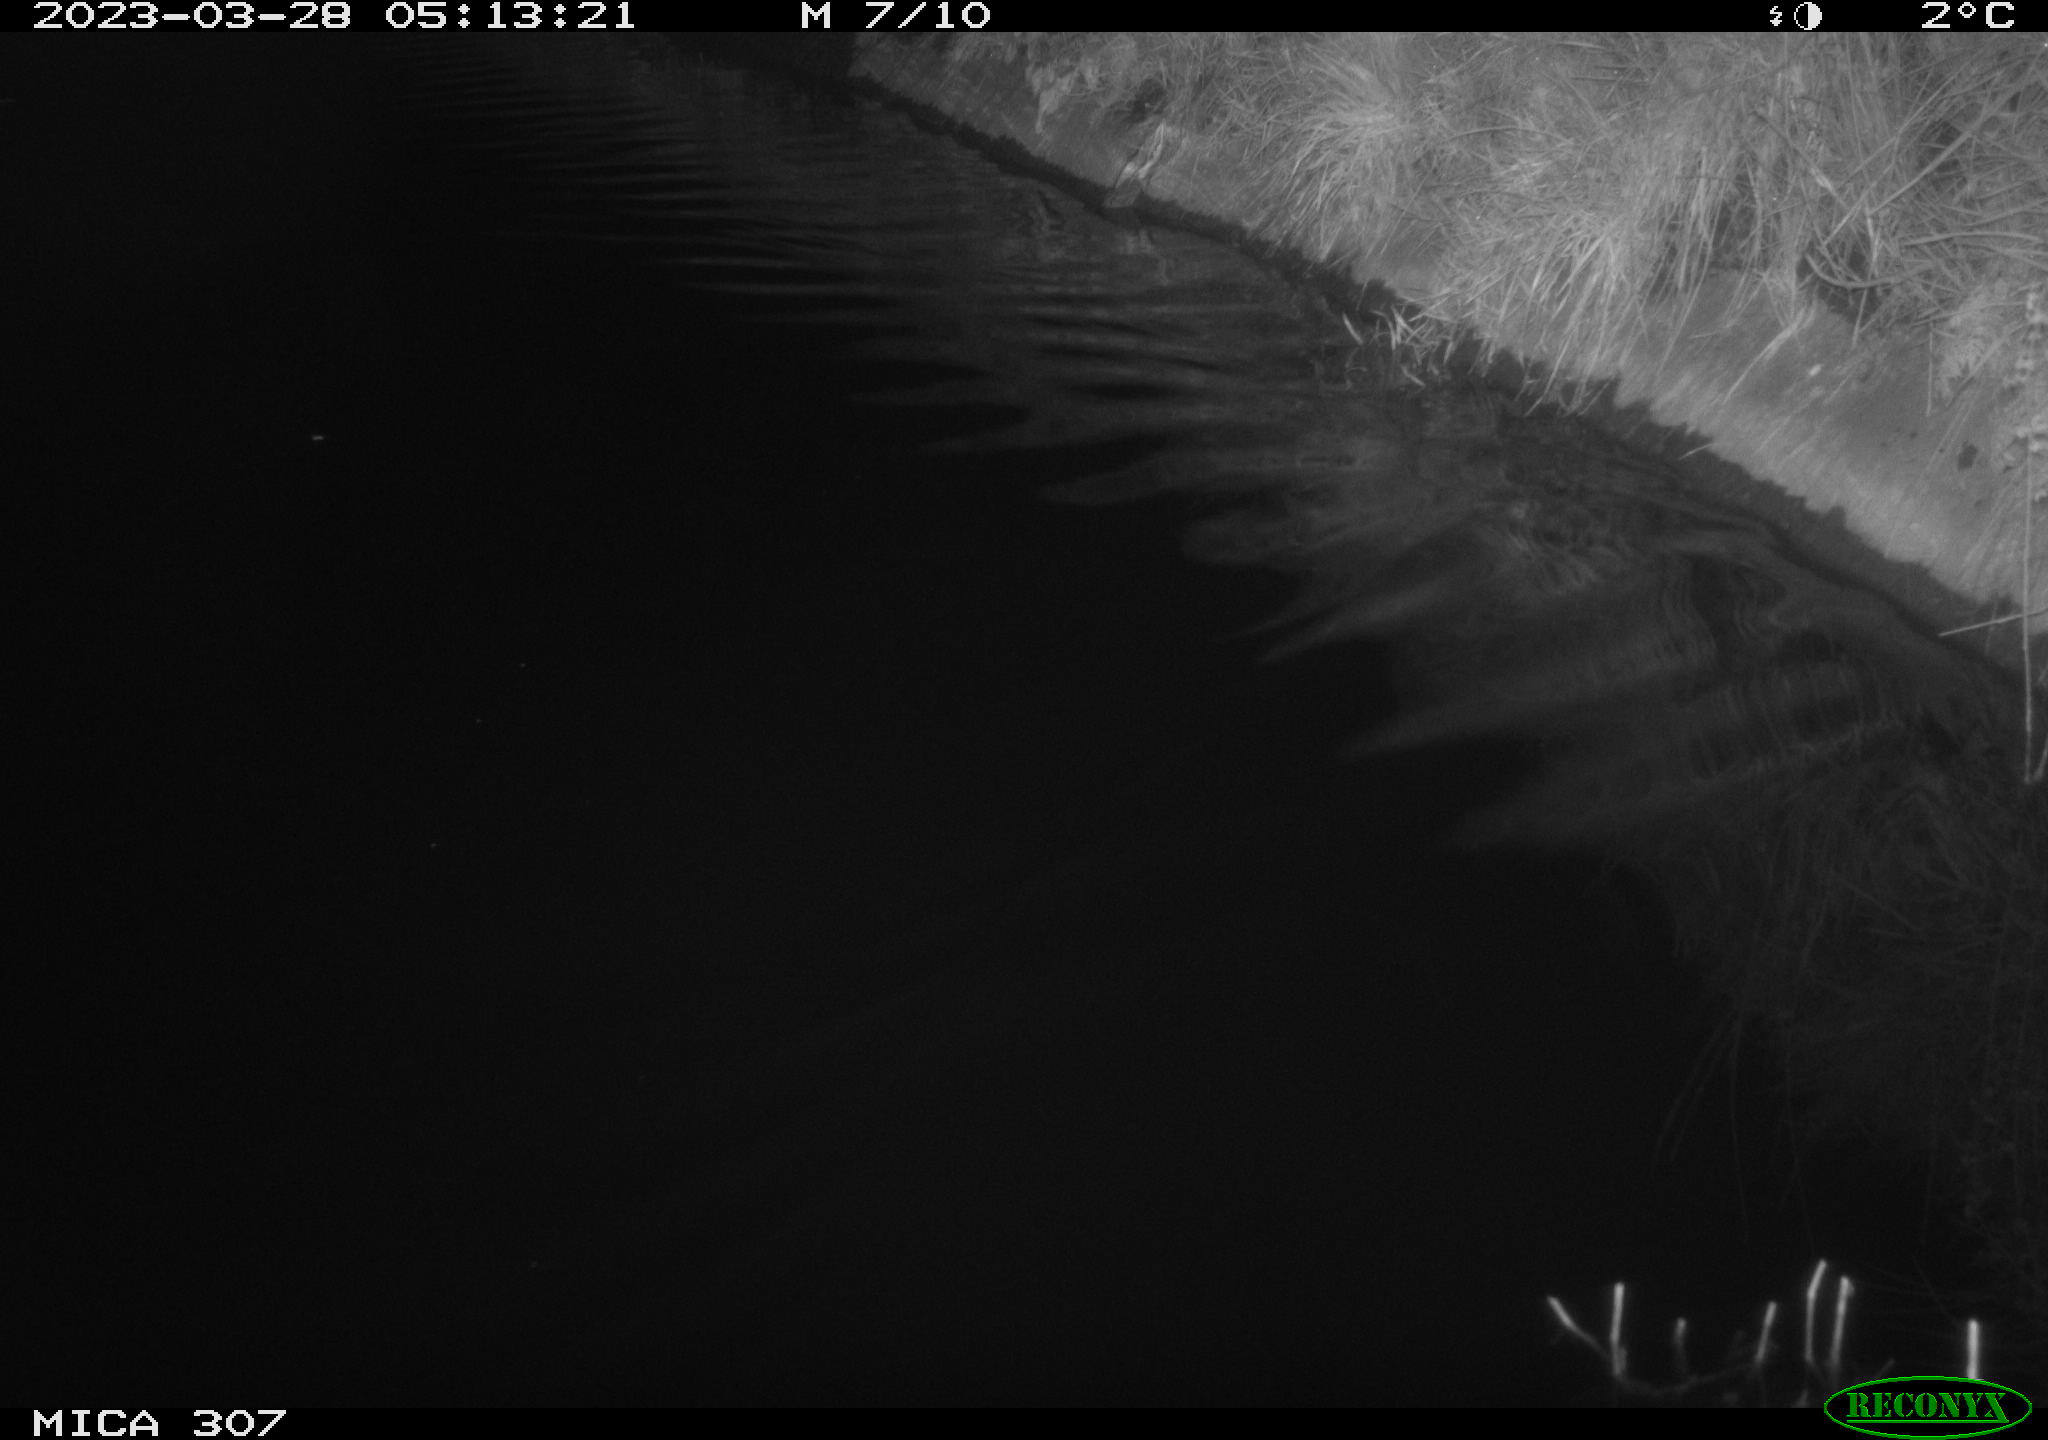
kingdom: Animalia
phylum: Chordata
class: Aves
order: Anseriformes
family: Anatidae
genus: Anas
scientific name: Anas
